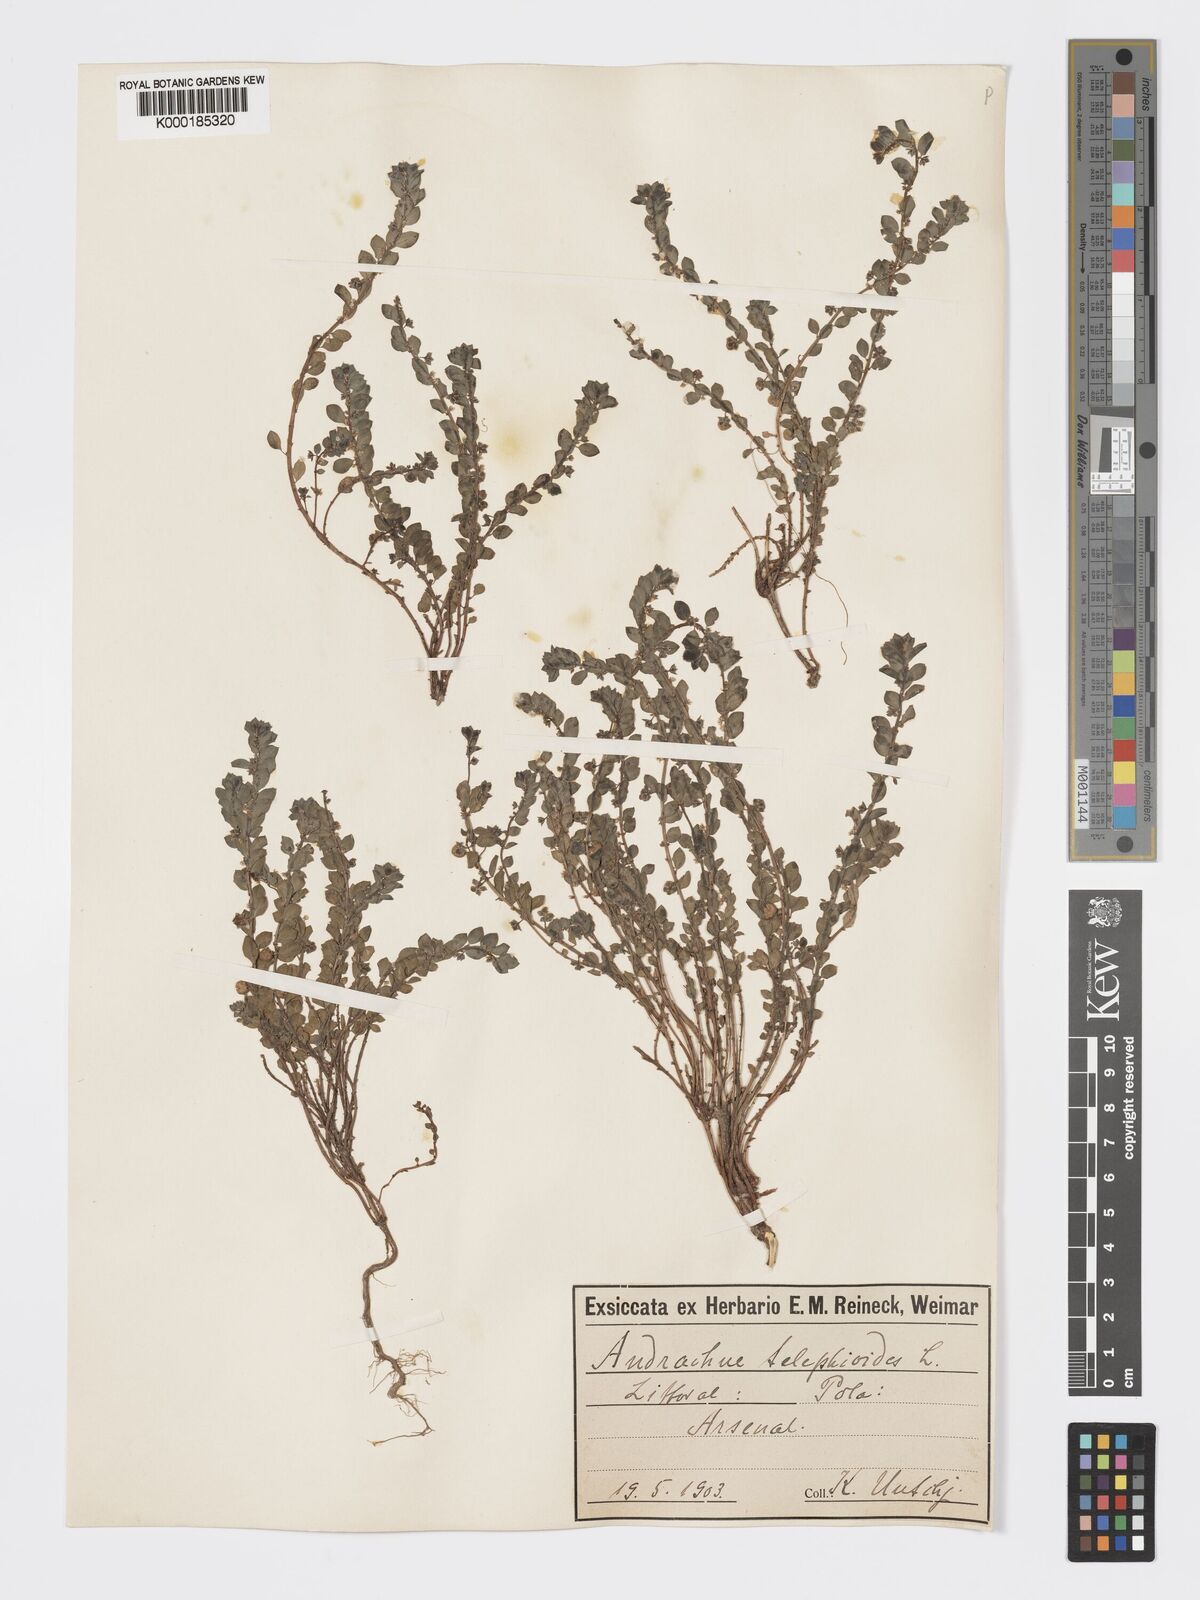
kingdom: Plantae
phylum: Tracheophyta
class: Magnoliopsida
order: Malpighiales
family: Phyllanthaceae
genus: Andrachne
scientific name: Andrachne telephioides
